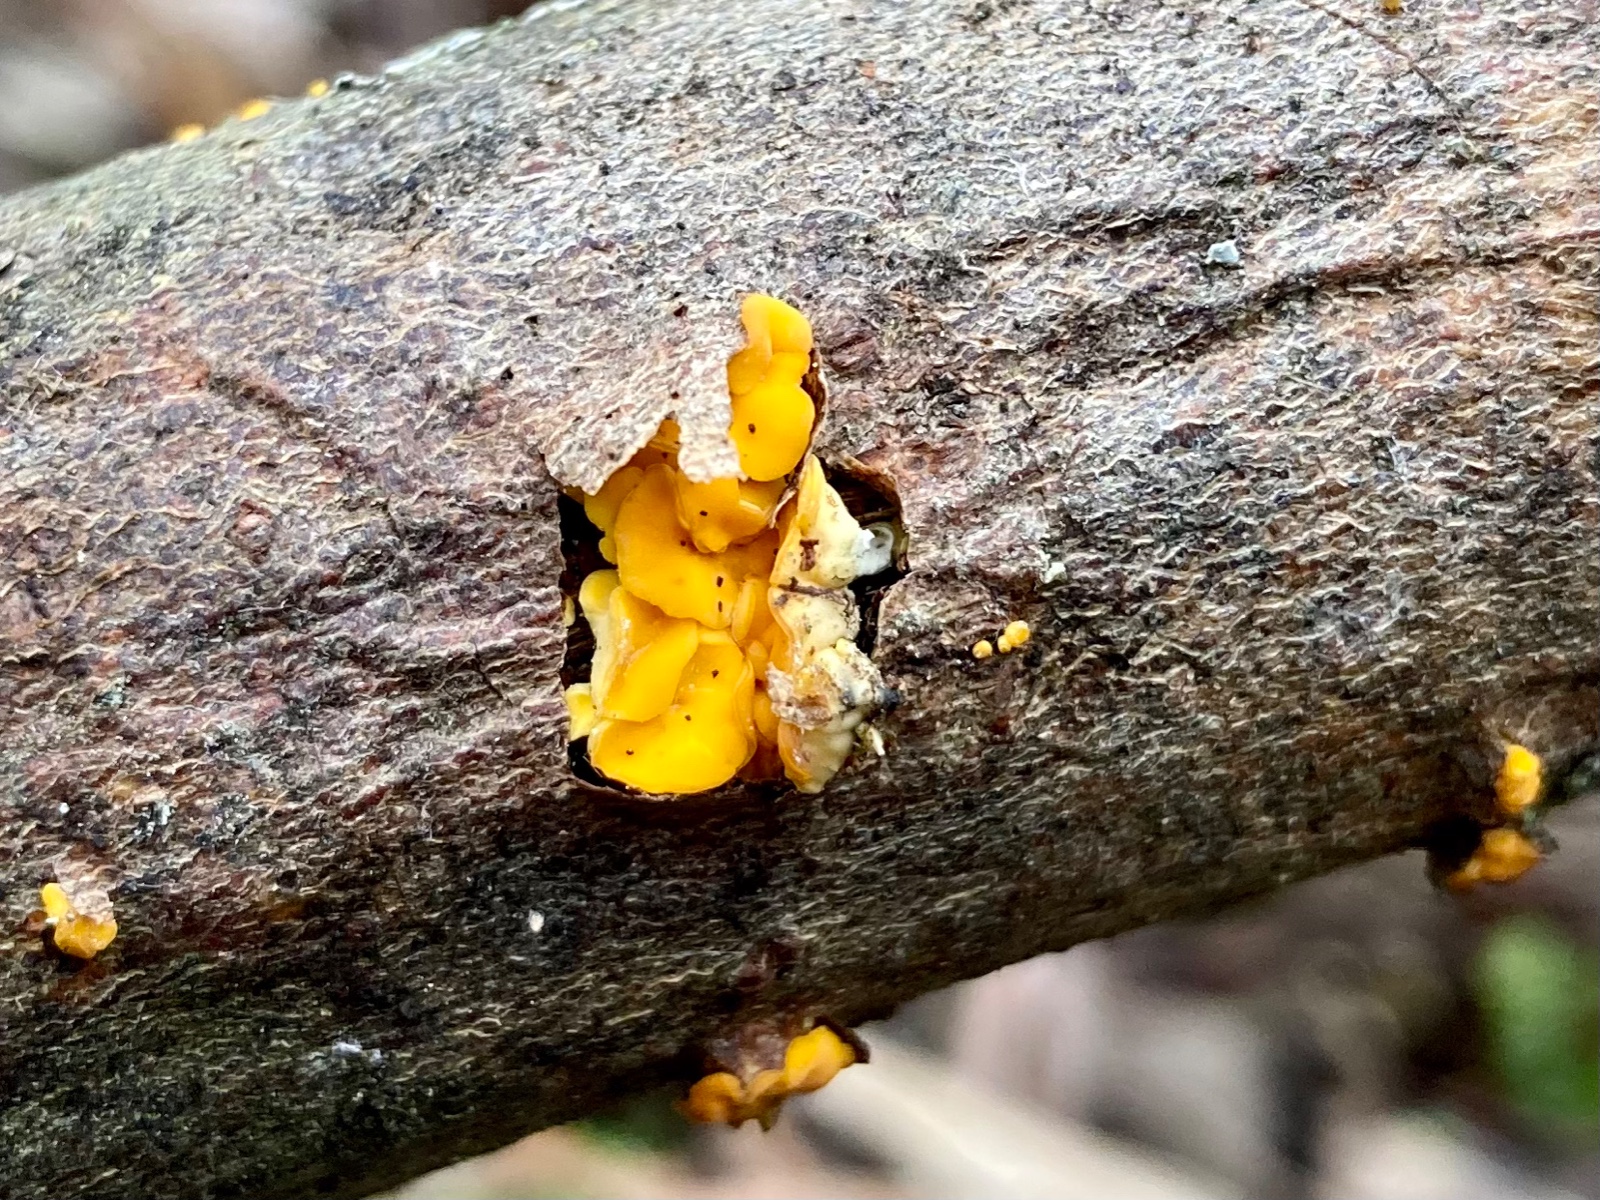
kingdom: Fungi
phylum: Ascomycota
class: Leotiomycetes
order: Helotiales
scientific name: Helotiales
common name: stilkskiveordenen
